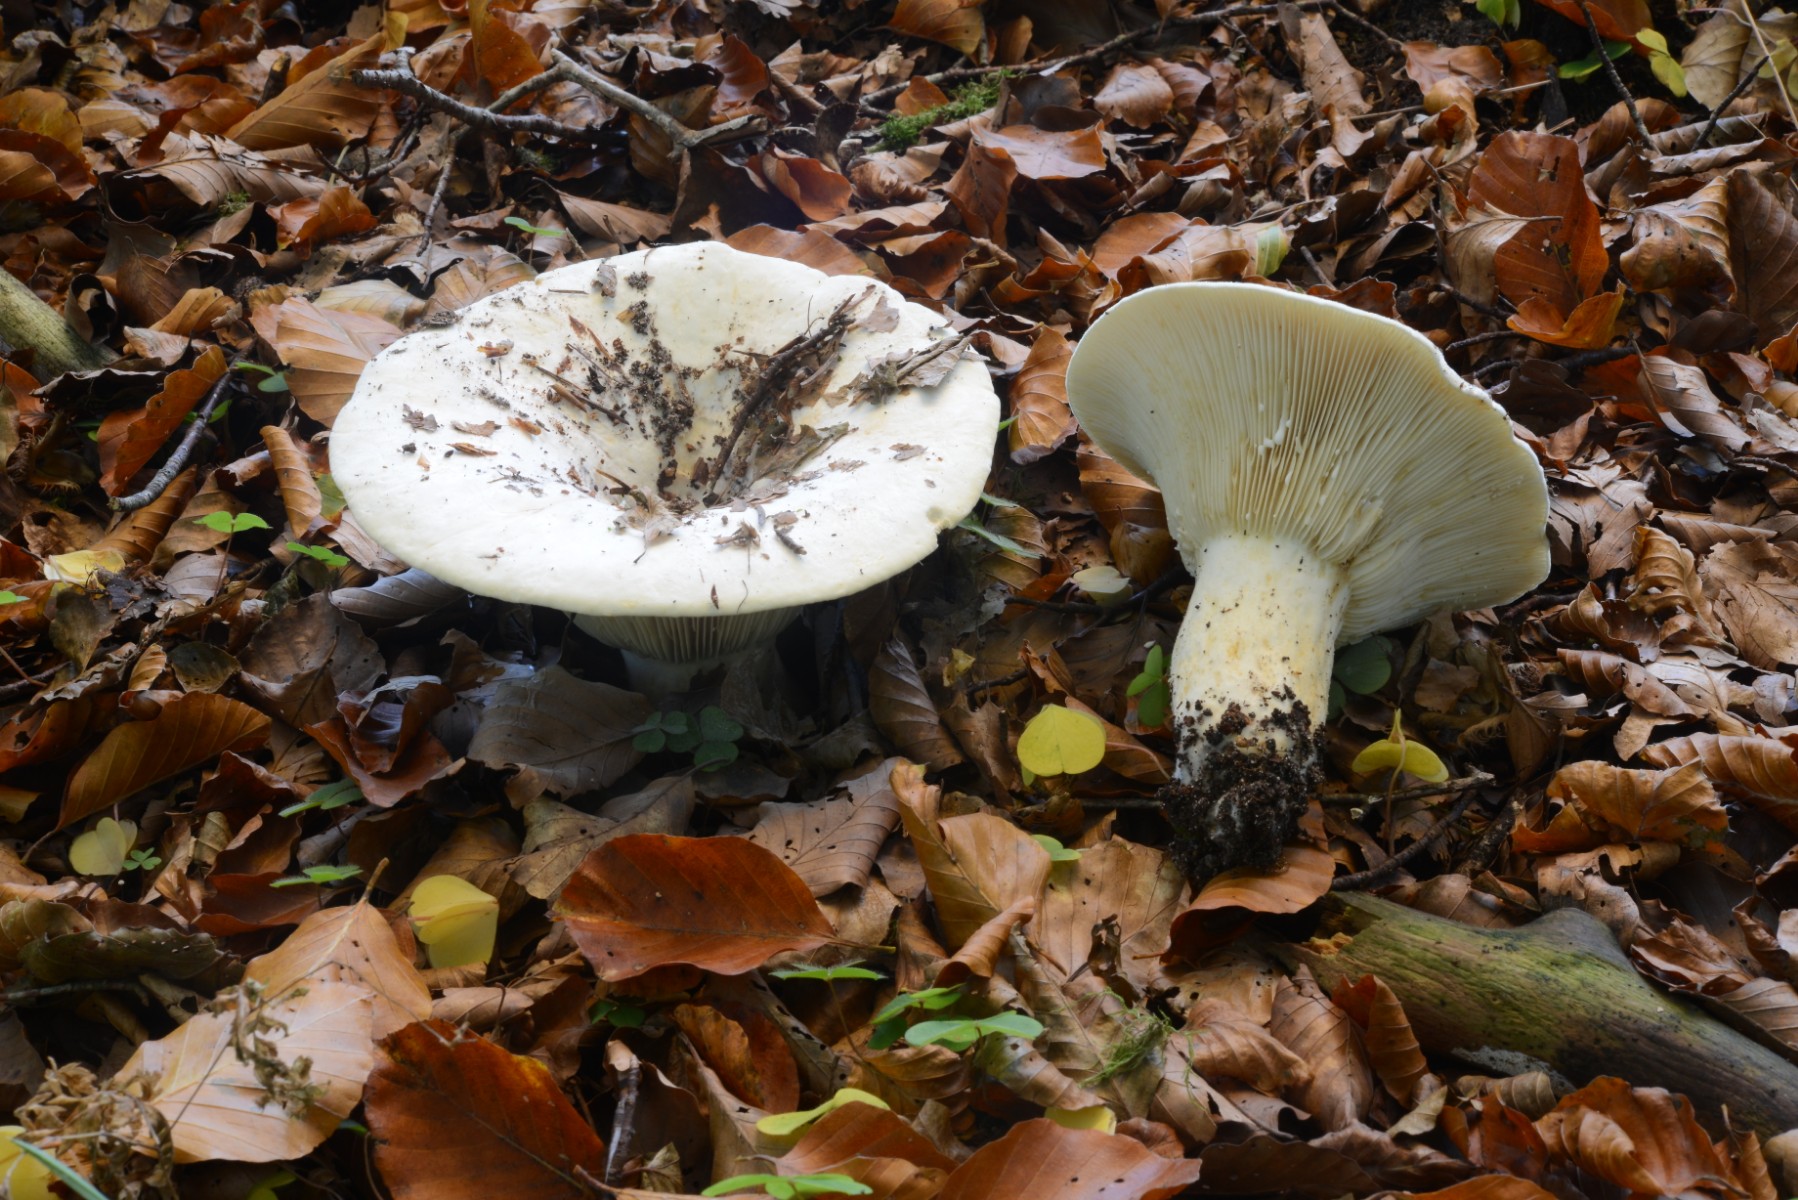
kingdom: Fungi
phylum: Basidiomycota
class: Agaricomycetes
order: Russulales
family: Russulaceae
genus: Lactifluus
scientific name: Lactifluus piperatus
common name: peber-mælkehat
